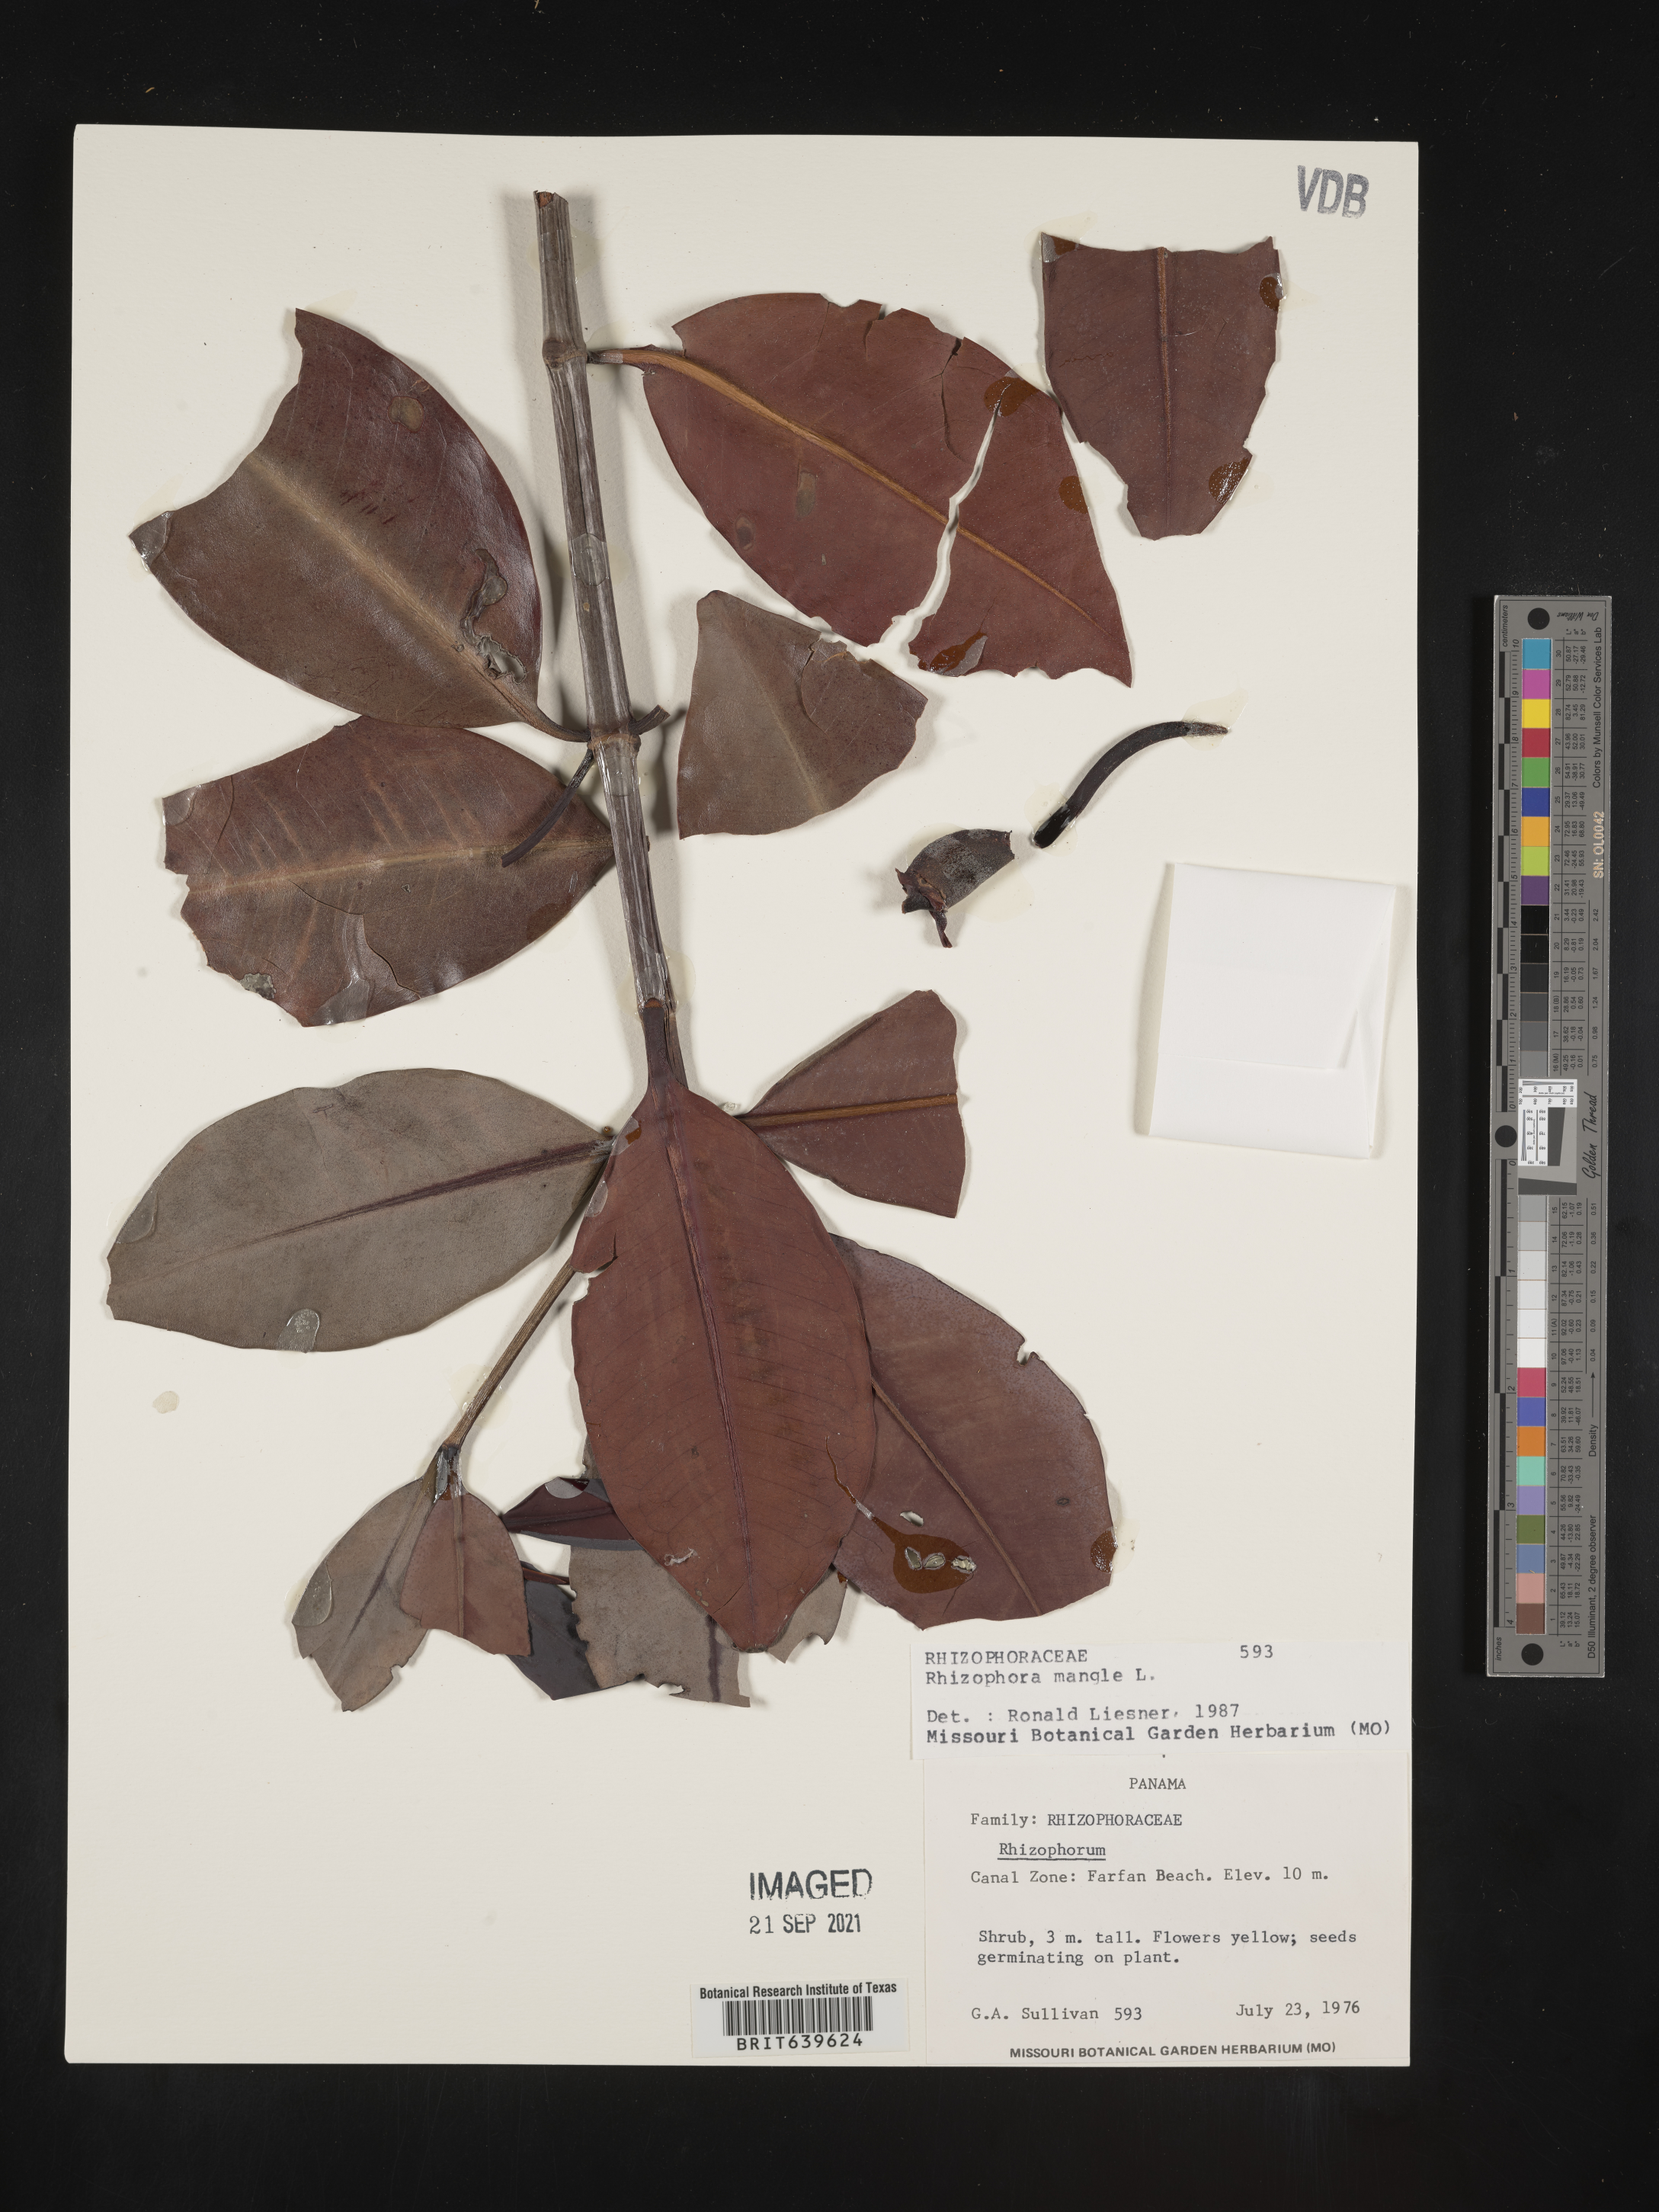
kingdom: Plantae
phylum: Tracheophyta
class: Magnoliopsida
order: Malpighiales
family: Rhizophoraceae
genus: Rhizophora
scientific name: Rhizophora
